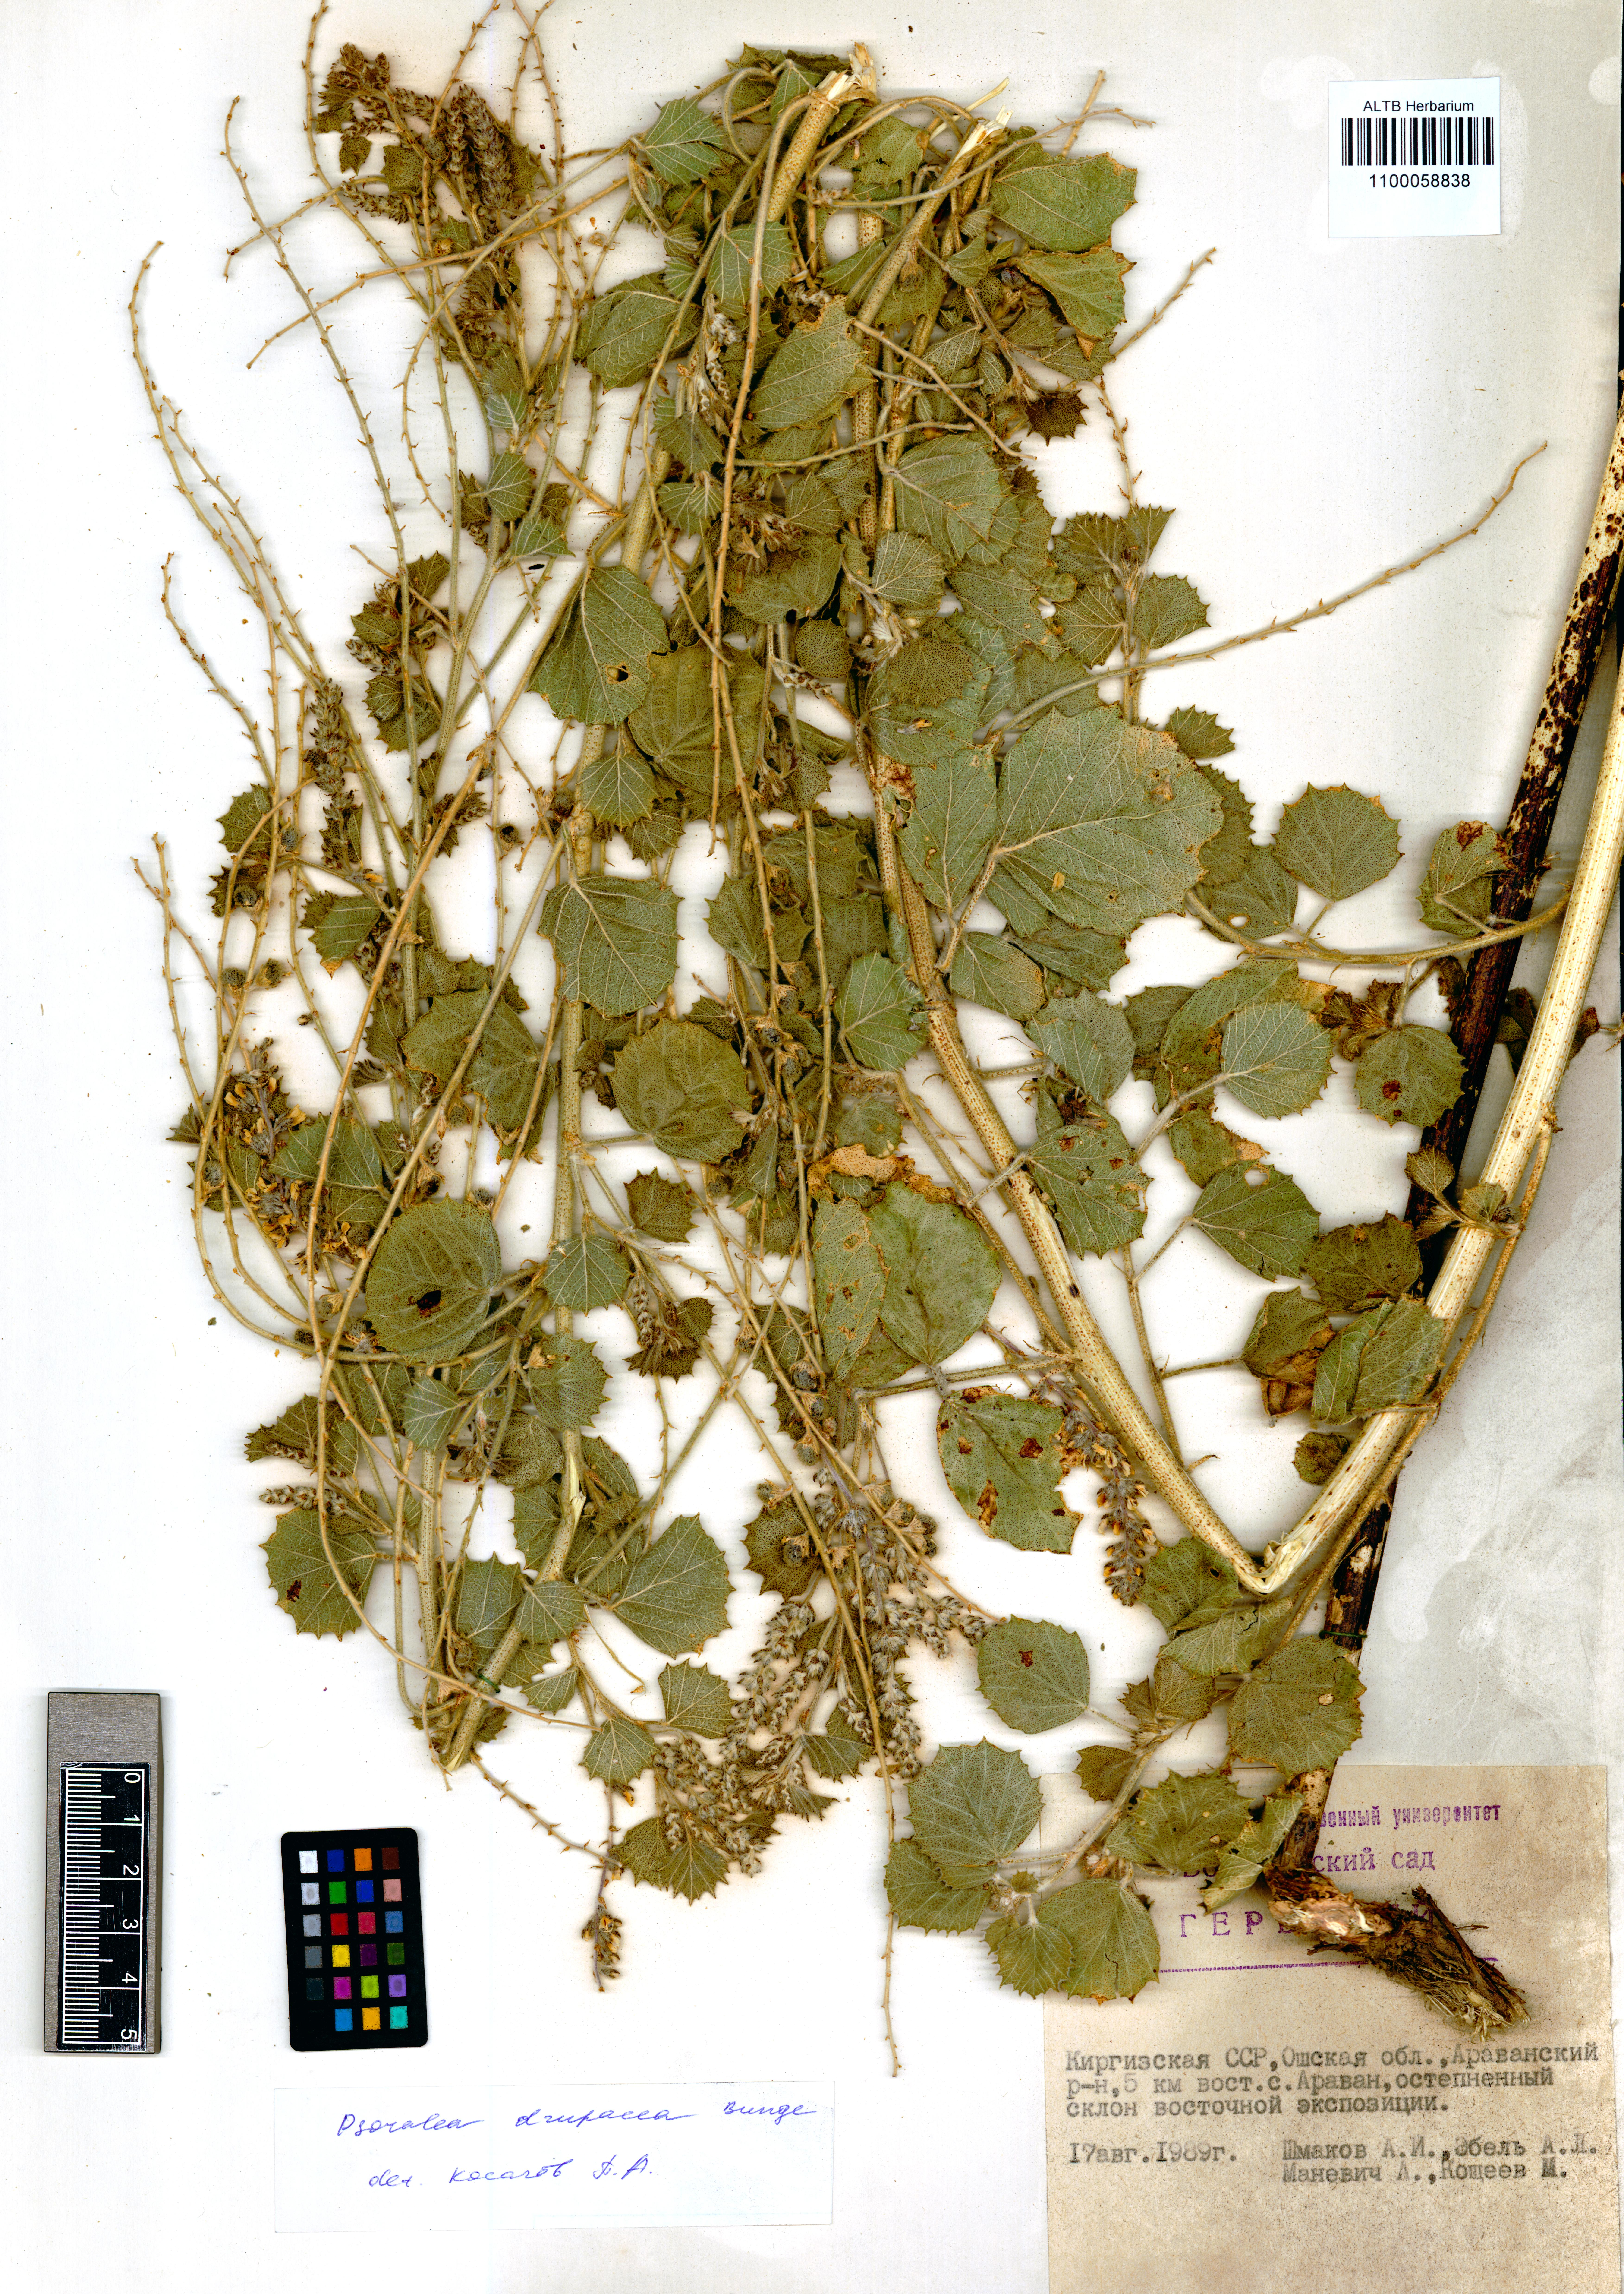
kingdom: Plantae
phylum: Tracheophyta
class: Magnoliopsida
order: Fabales
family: Fabaceae
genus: Cullen
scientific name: Cullen drupaceum
